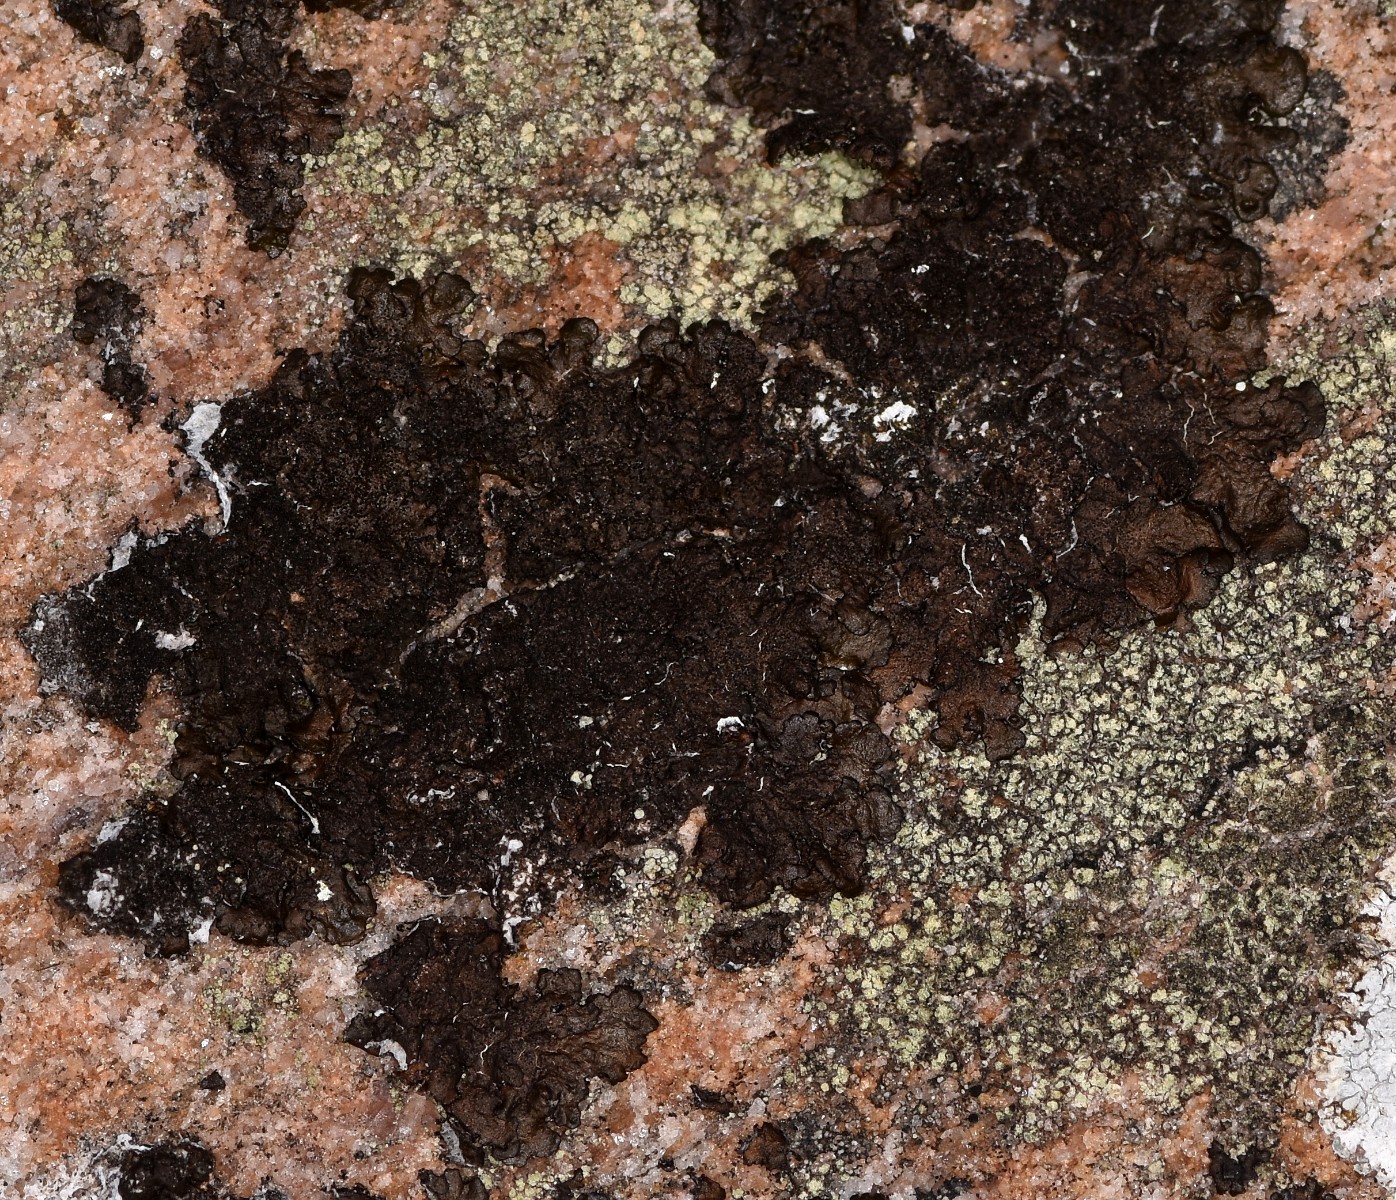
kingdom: Fungi
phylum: Ascomycota
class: Lecanoromycetes
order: Lecanorales
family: Parmeliaceae
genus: Melanelixia
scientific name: Melanelixia fuliginosa
